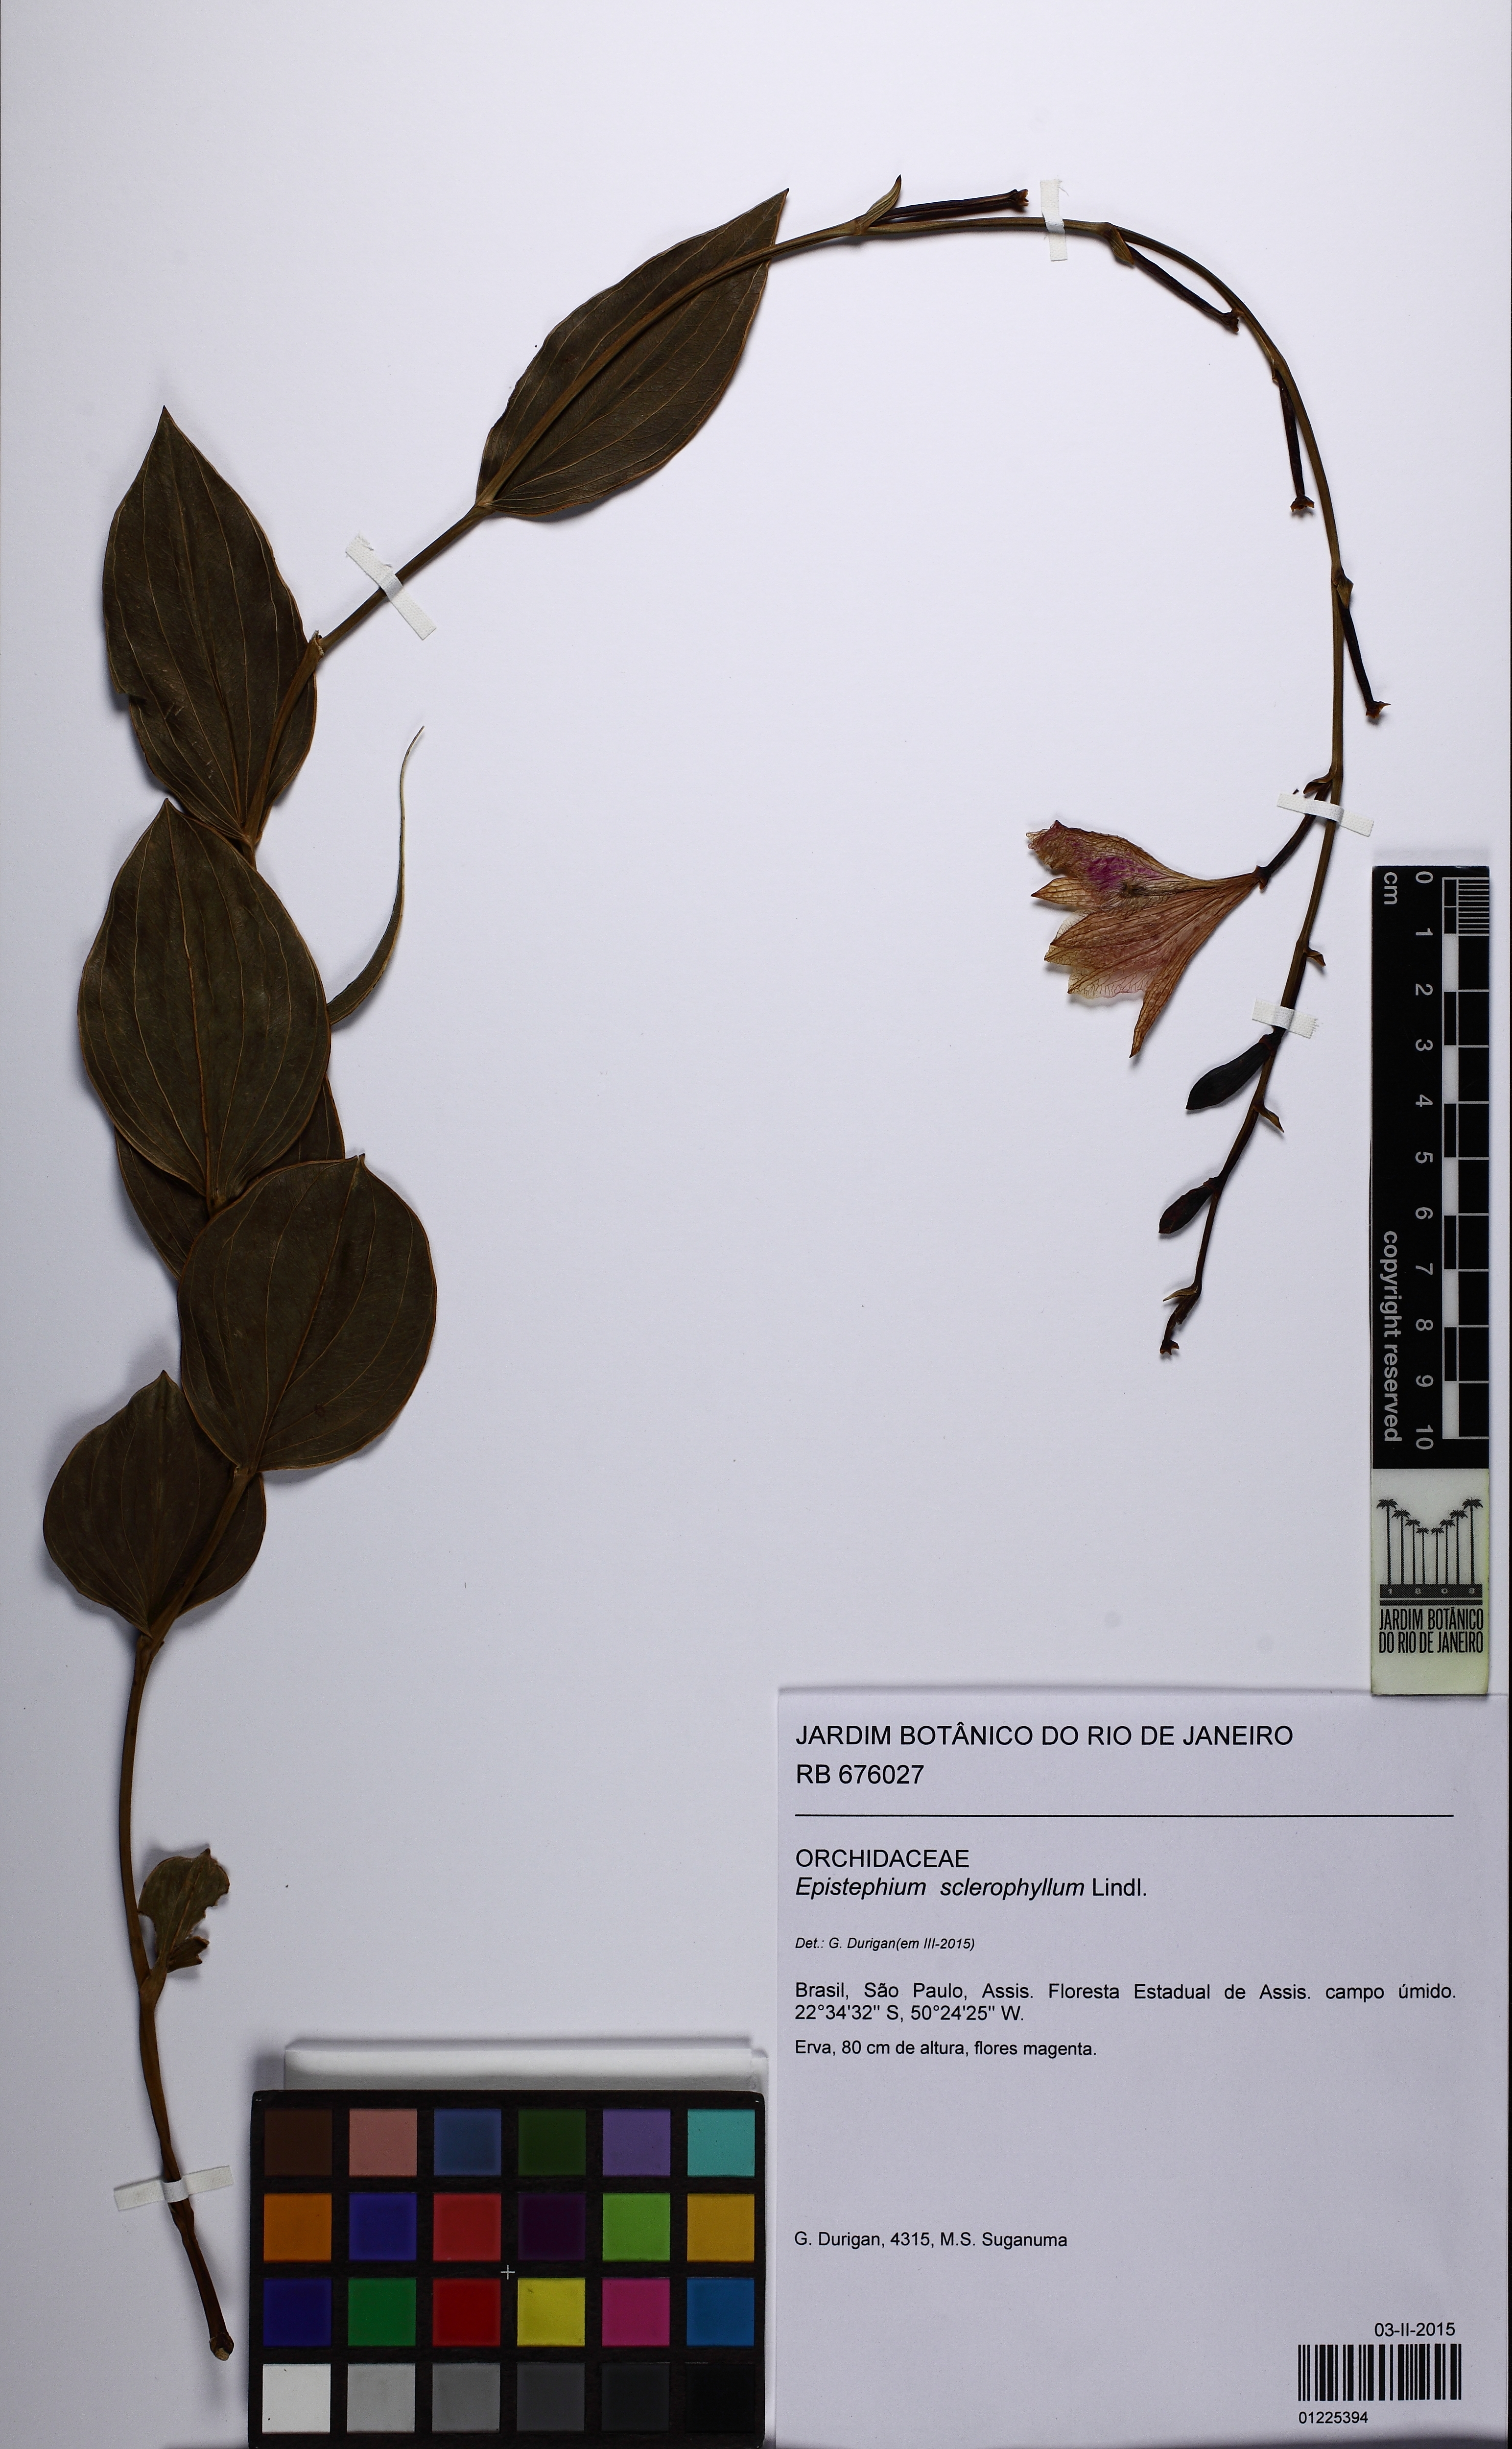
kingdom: Plantae
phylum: Tracheophyta
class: Liliopsida
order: Asparagales
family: Orchidaceae
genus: Epistephium
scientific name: Epistephium sclerophyllum
